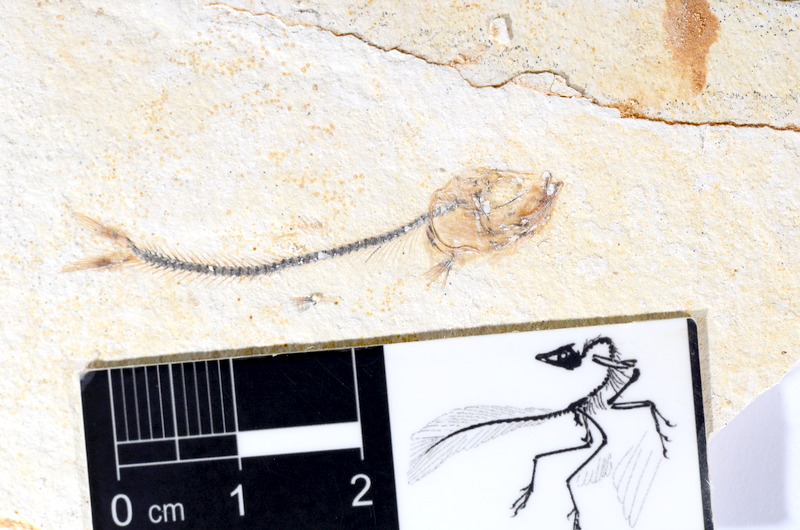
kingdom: Animalia
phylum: Chordata
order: Salmoniformes
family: Orthogonikleithridae
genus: Orthogonikleithrus
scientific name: Orthogonikleithrus hoelli
